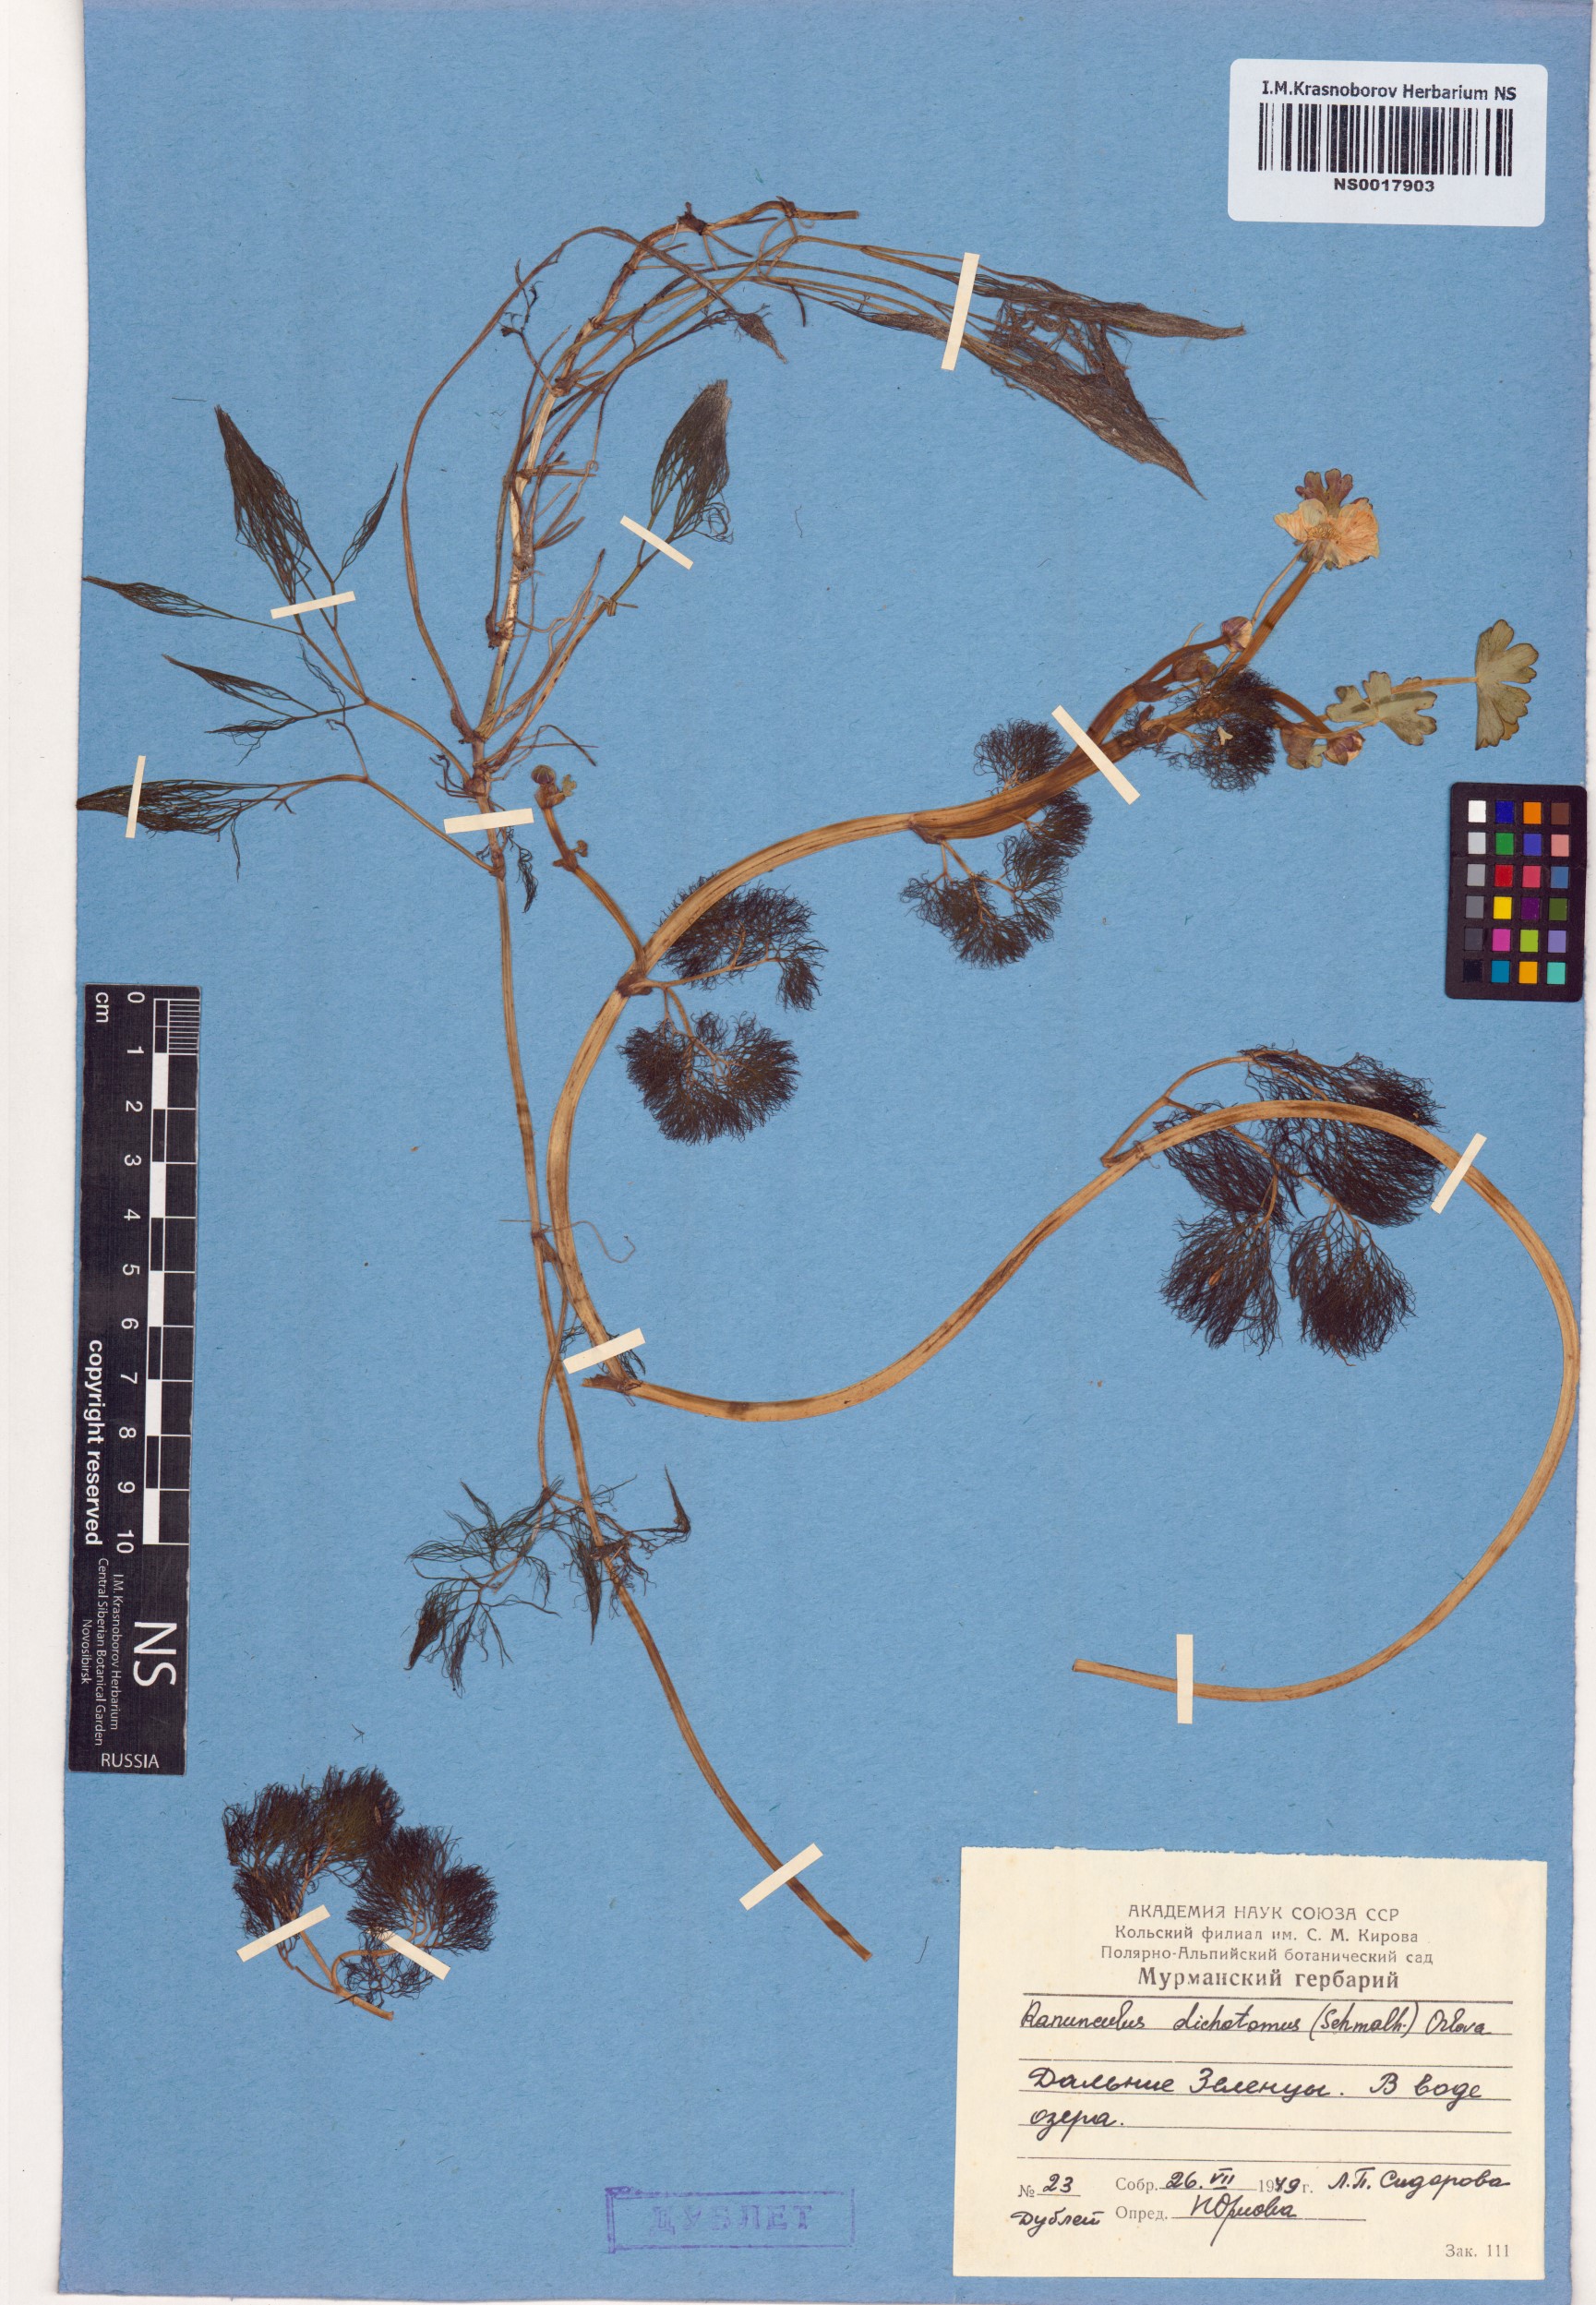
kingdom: Plantae
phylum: Tracheophyta
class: Magnoliopsida
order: Ranunculales
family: Ranunculaceae
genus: Ranunculus
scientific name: Ranunculus dichotomus
